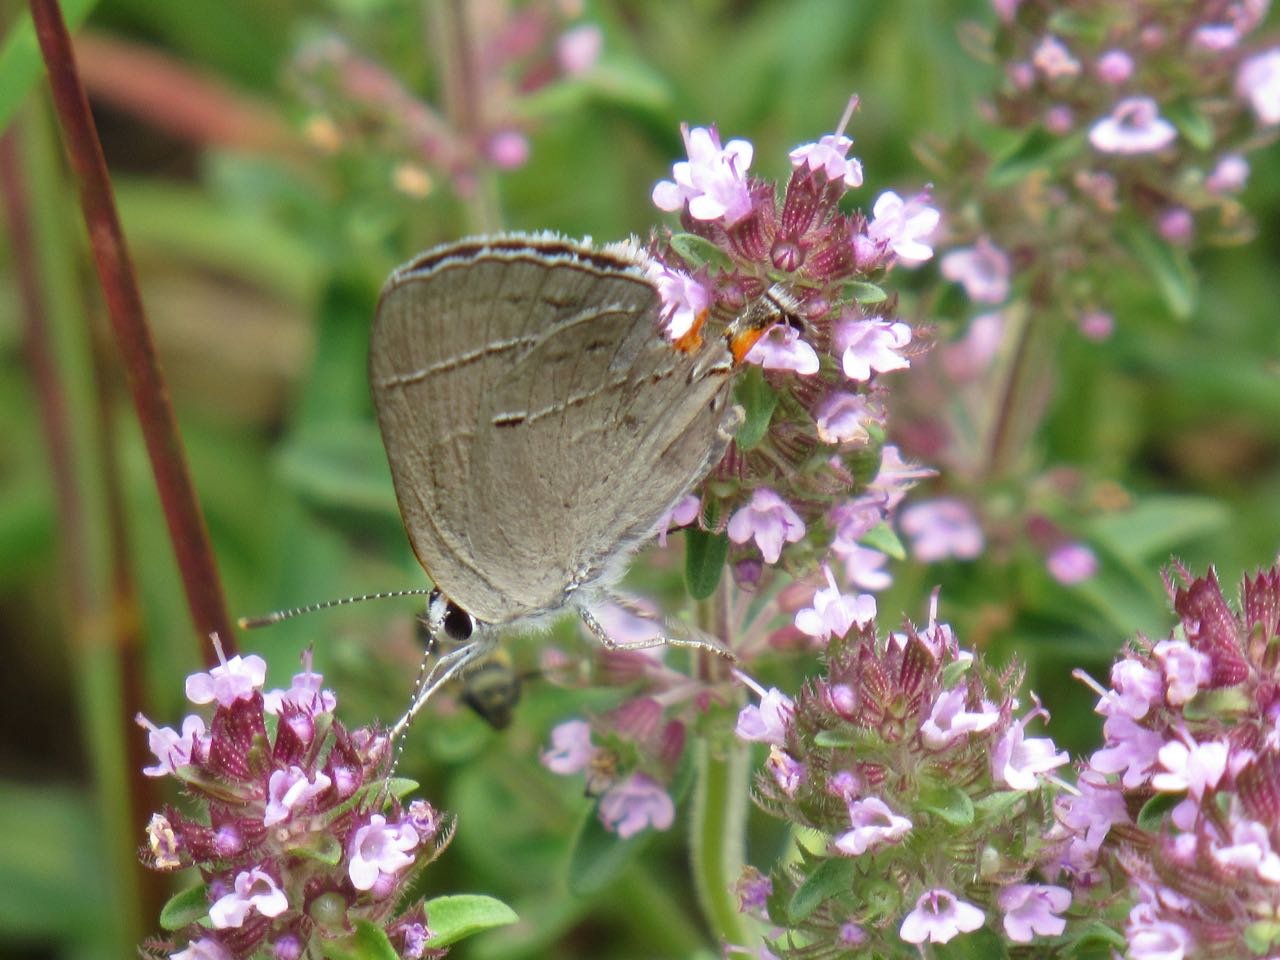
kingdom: Animalia
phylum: Arthropoda
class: Insecta
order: Lepidoptera
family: Lycaenidae
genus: Strymon
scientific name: Strymon melinus
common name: Gray Hairstreak
